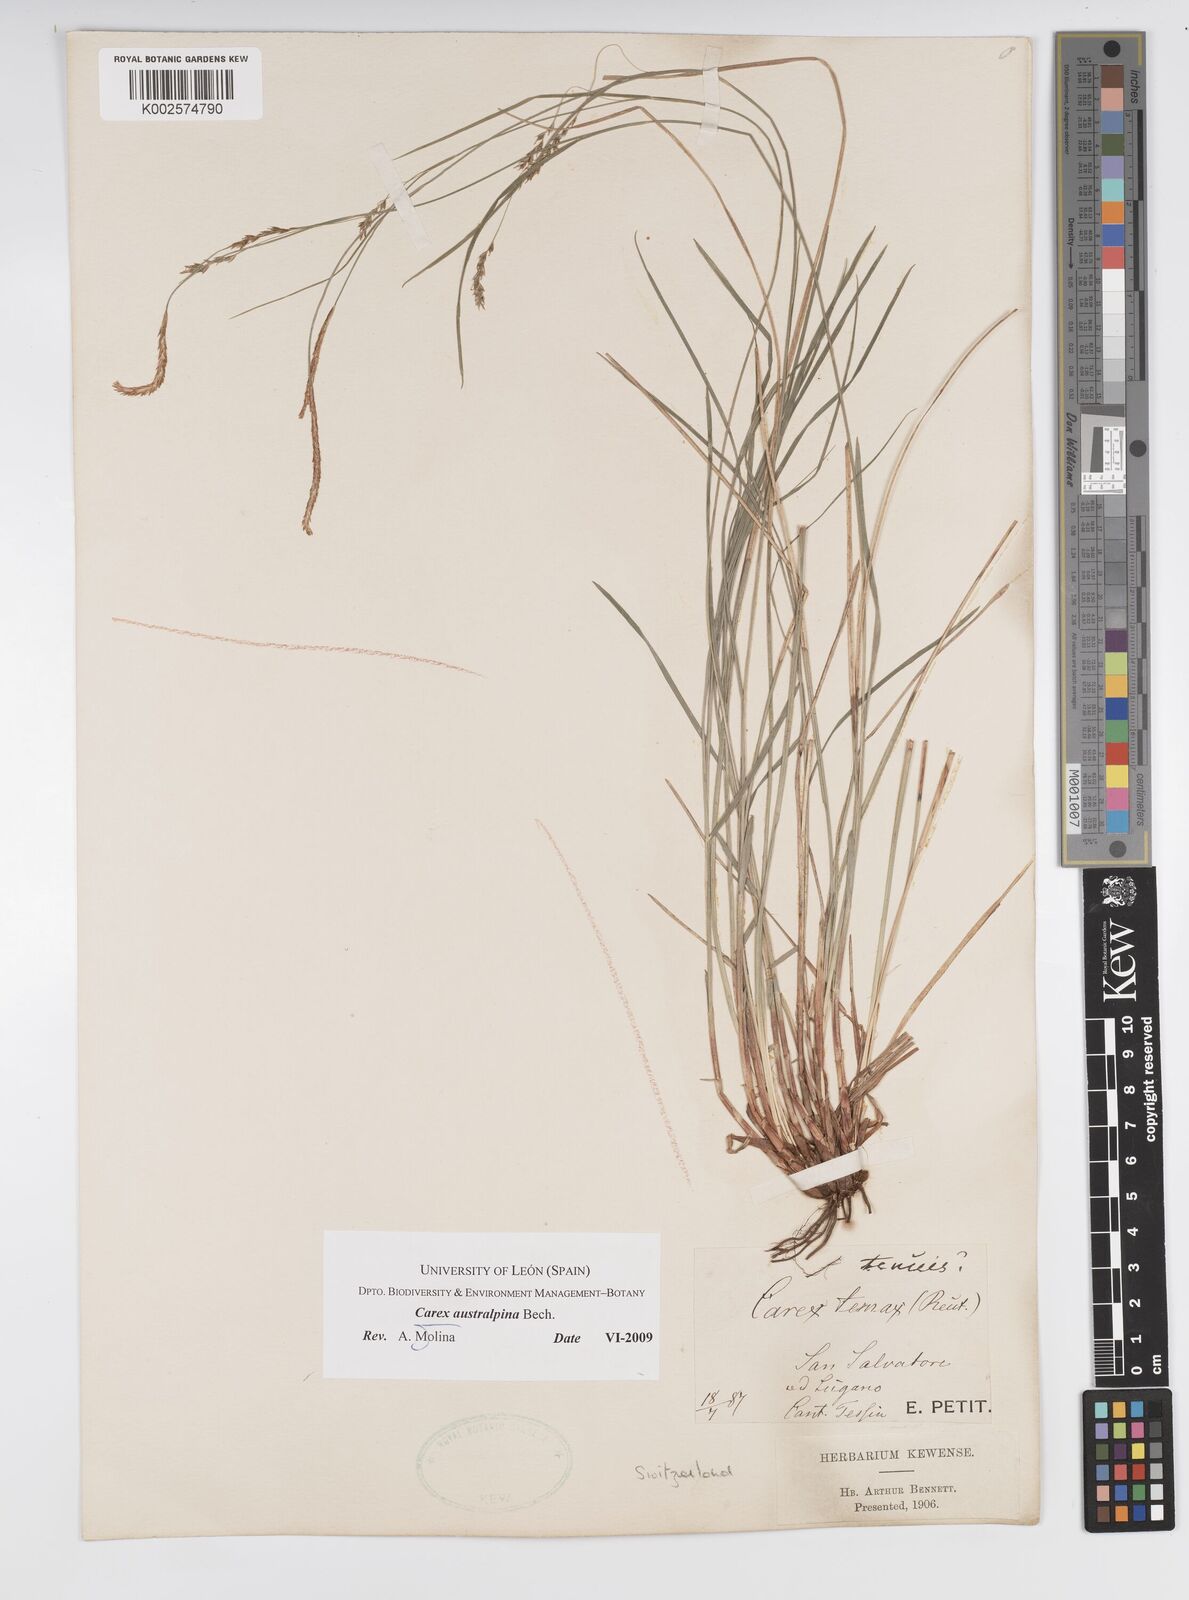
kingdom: Plantae
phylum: Tracheophyta
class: Liliopsida
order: Poales
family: Cyperaceae
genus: Carex
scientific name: Carex austroalpina
